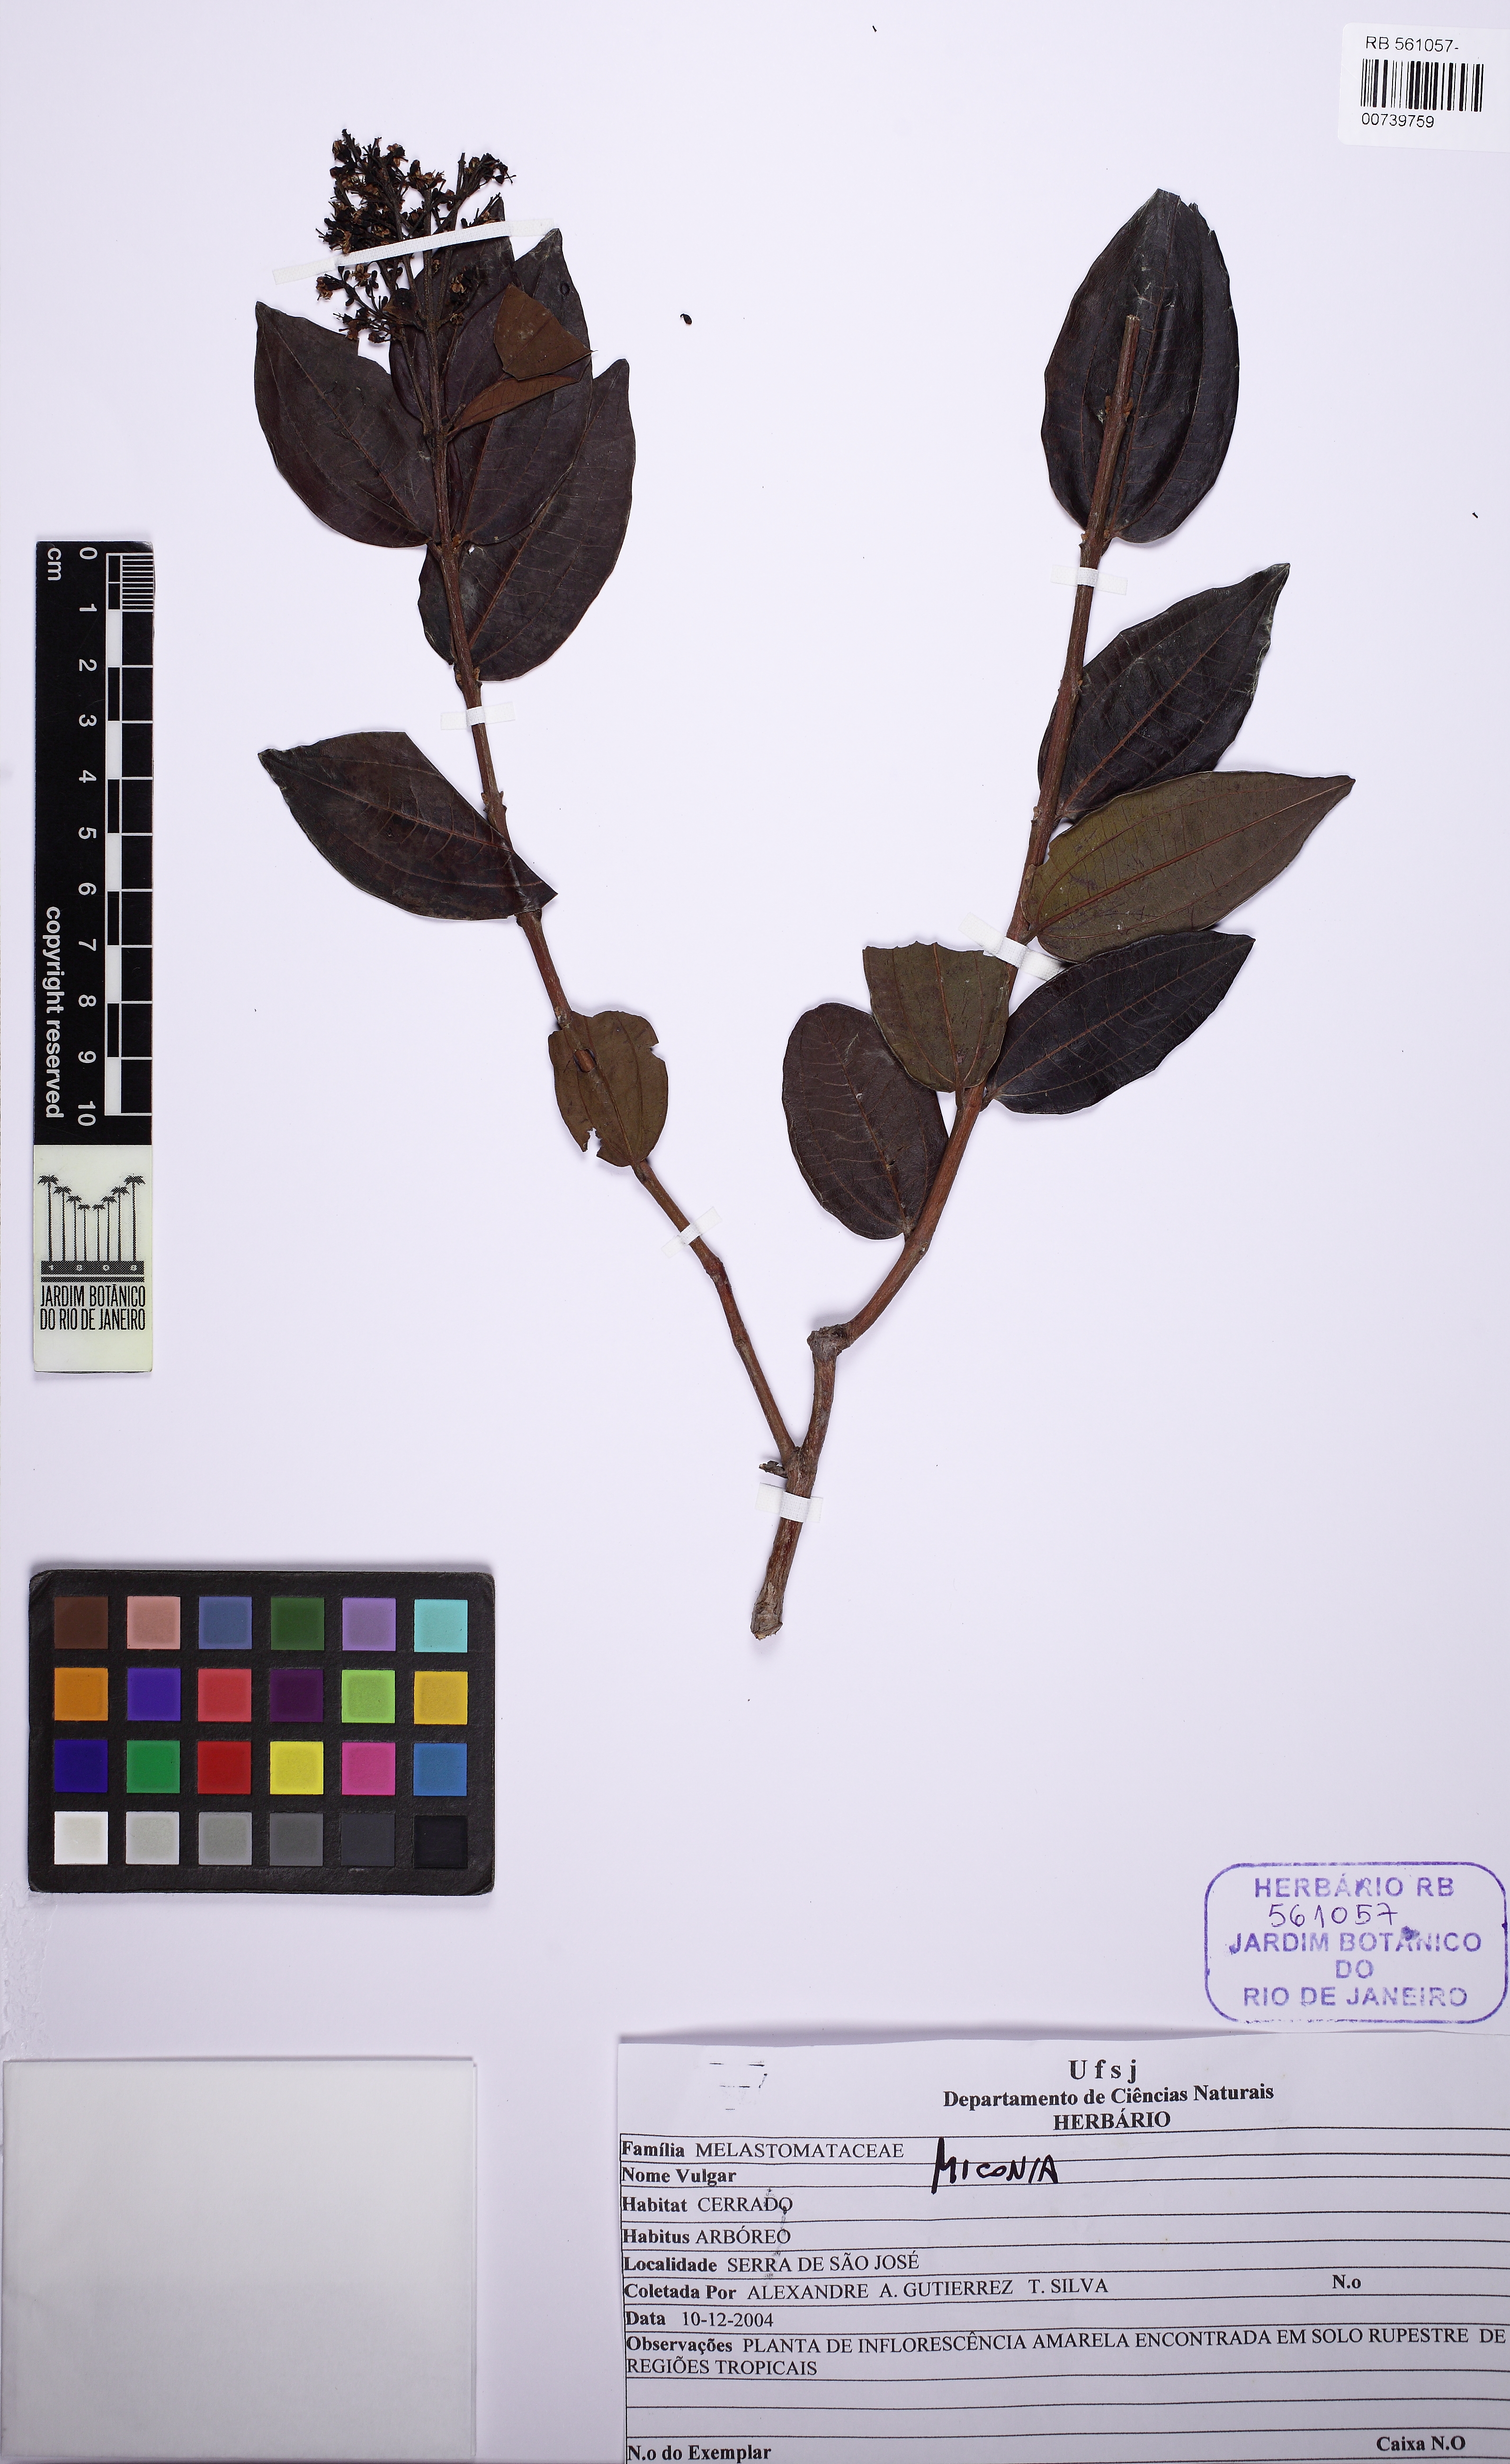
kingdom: Plantae
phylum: Tracheophyta
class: Magnoliopsida
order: Myrtales
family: Melastomataceae
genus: Miconia
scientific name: Miconia ligustroides
